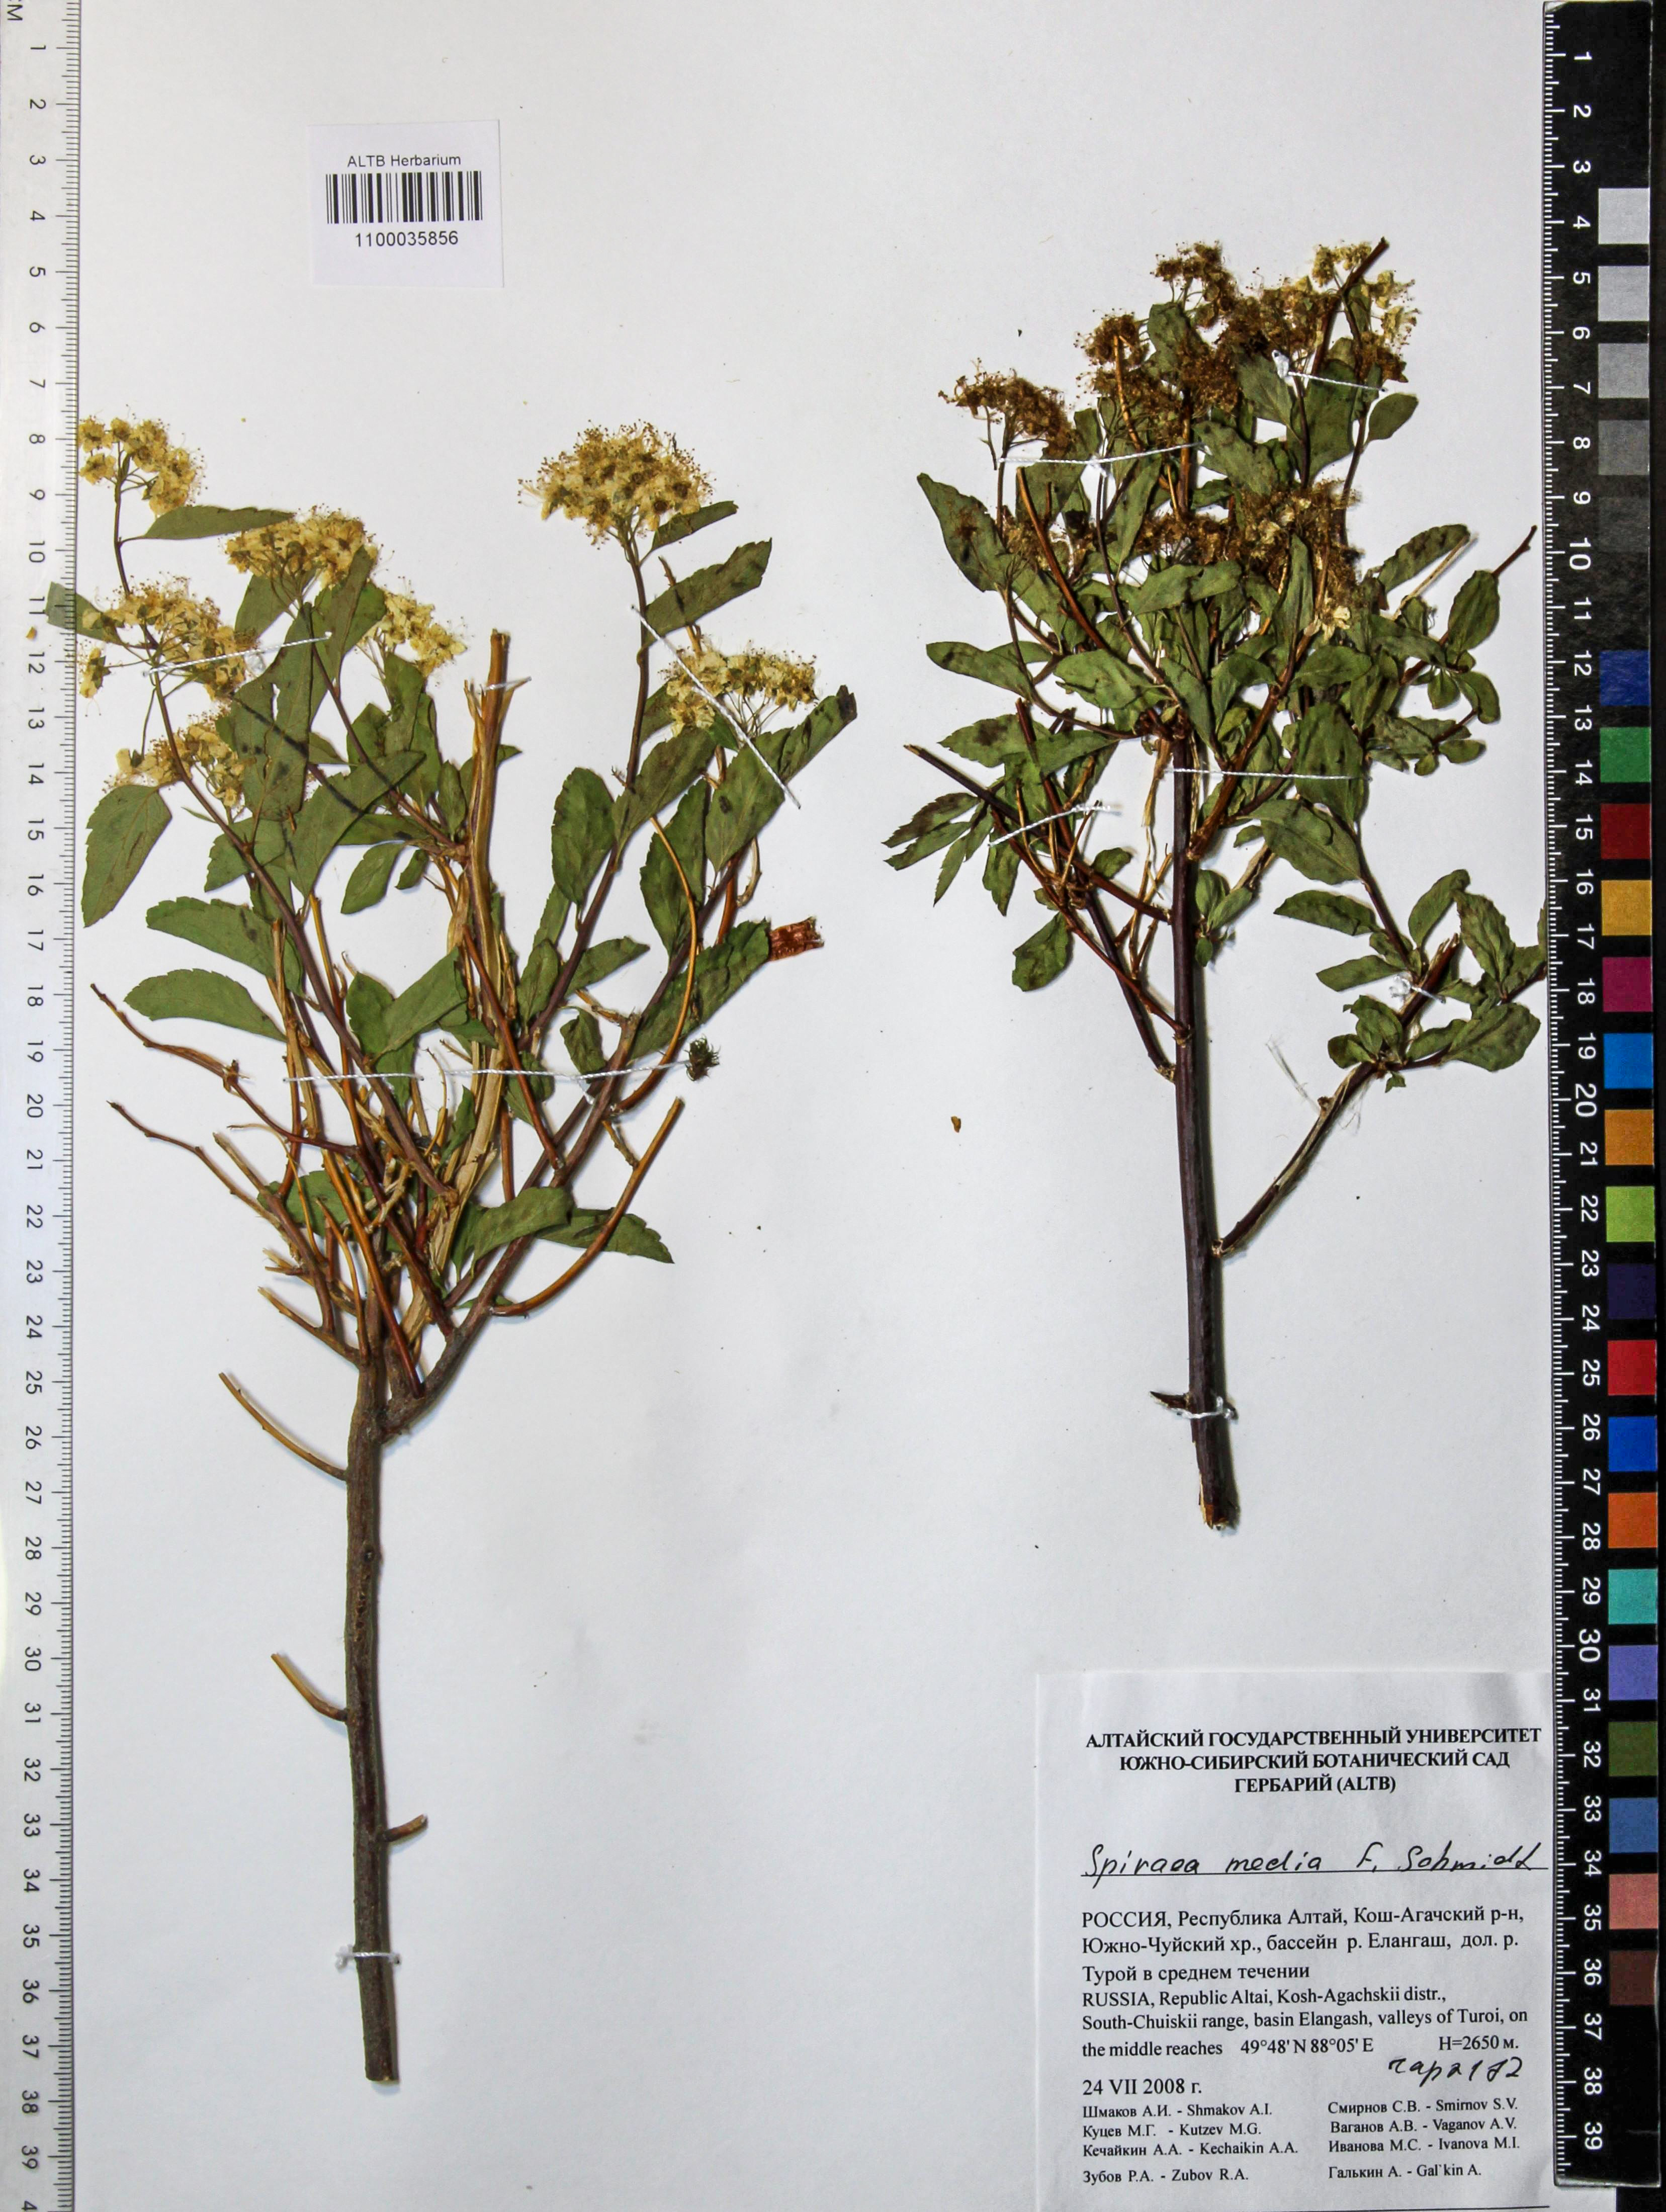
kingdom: Plantae
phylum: Tracheophyta
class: Magnoliopsida
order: Rosales
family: Rosaceae
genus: Spiraea
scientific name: Spiraea media
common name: Russian spiraea
